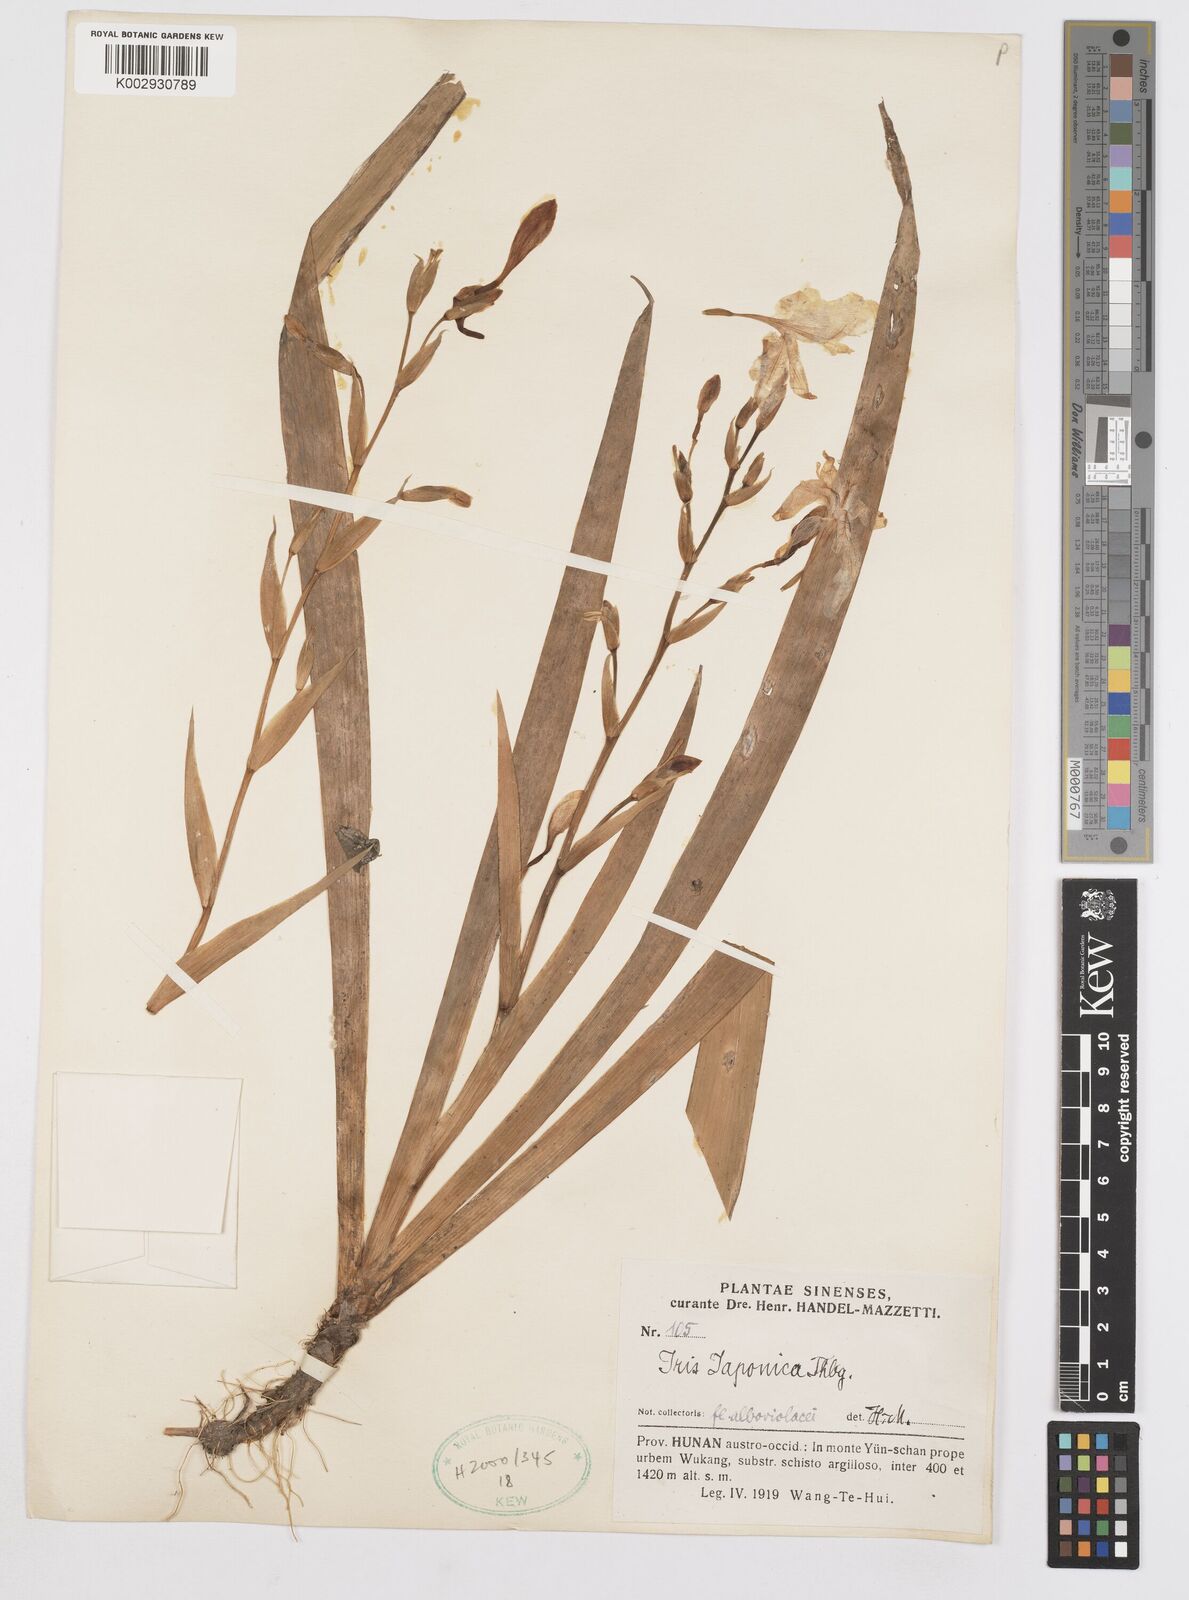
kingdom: Plantae
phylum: Tracheophyta
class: Liliopsida
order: Asparagales
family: Iridaceae
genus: Iris
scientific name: Iris japonica
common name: Butterfly-flower
